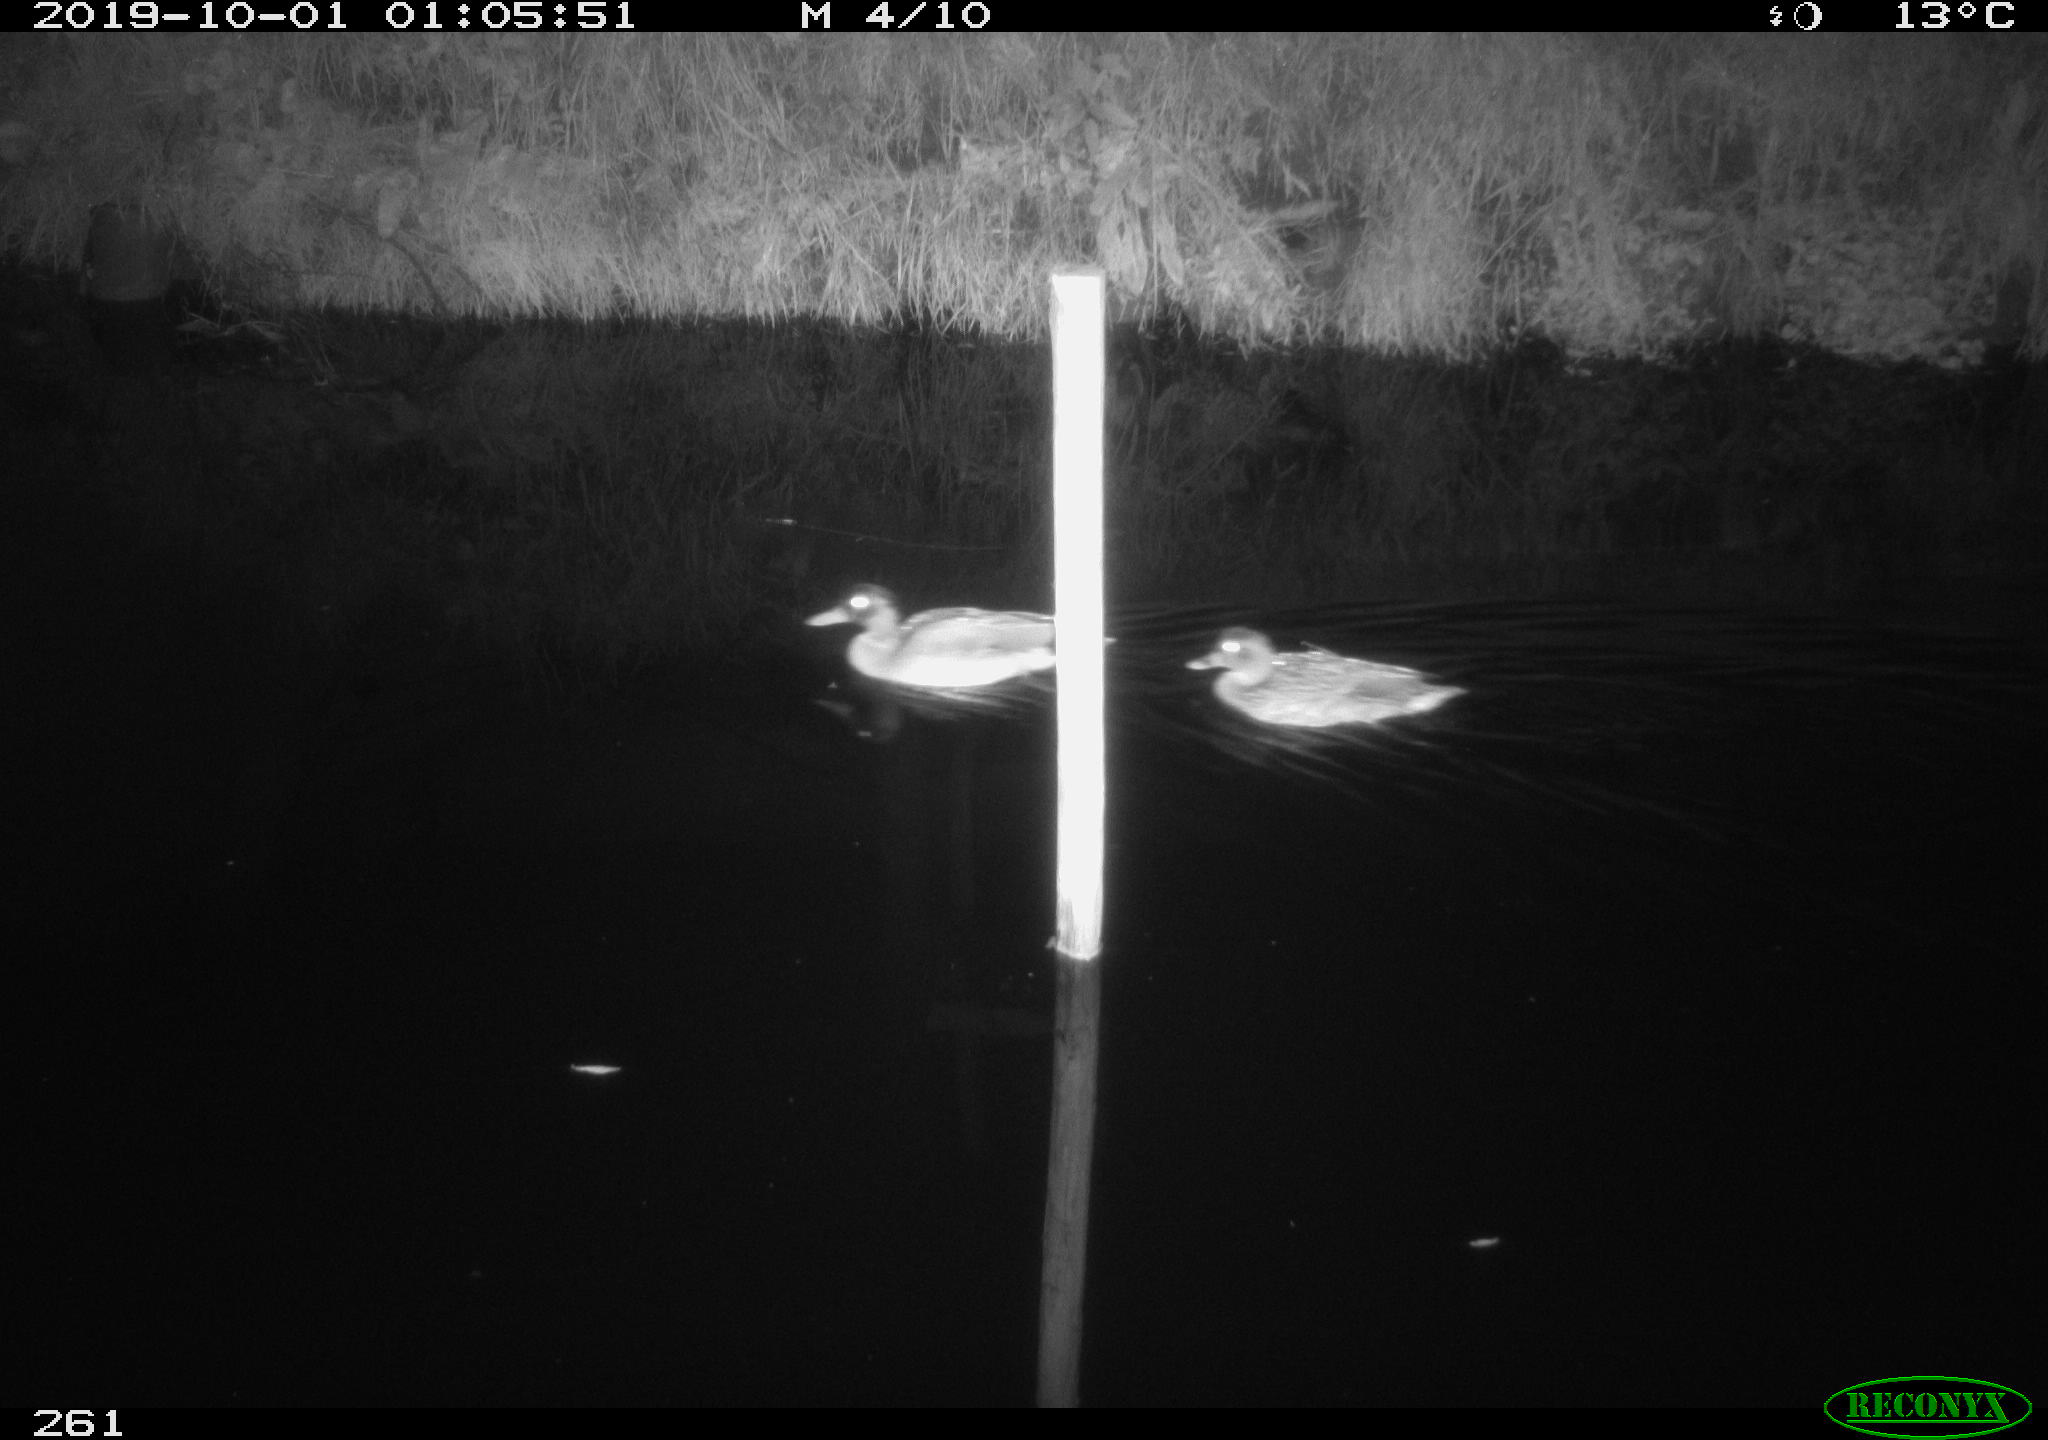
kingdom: Animalia
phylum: Chordata
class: Aves
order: Anseriformes
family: Anatidae
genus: Anas
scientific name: Anas platyrhynchos
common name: Mallard
